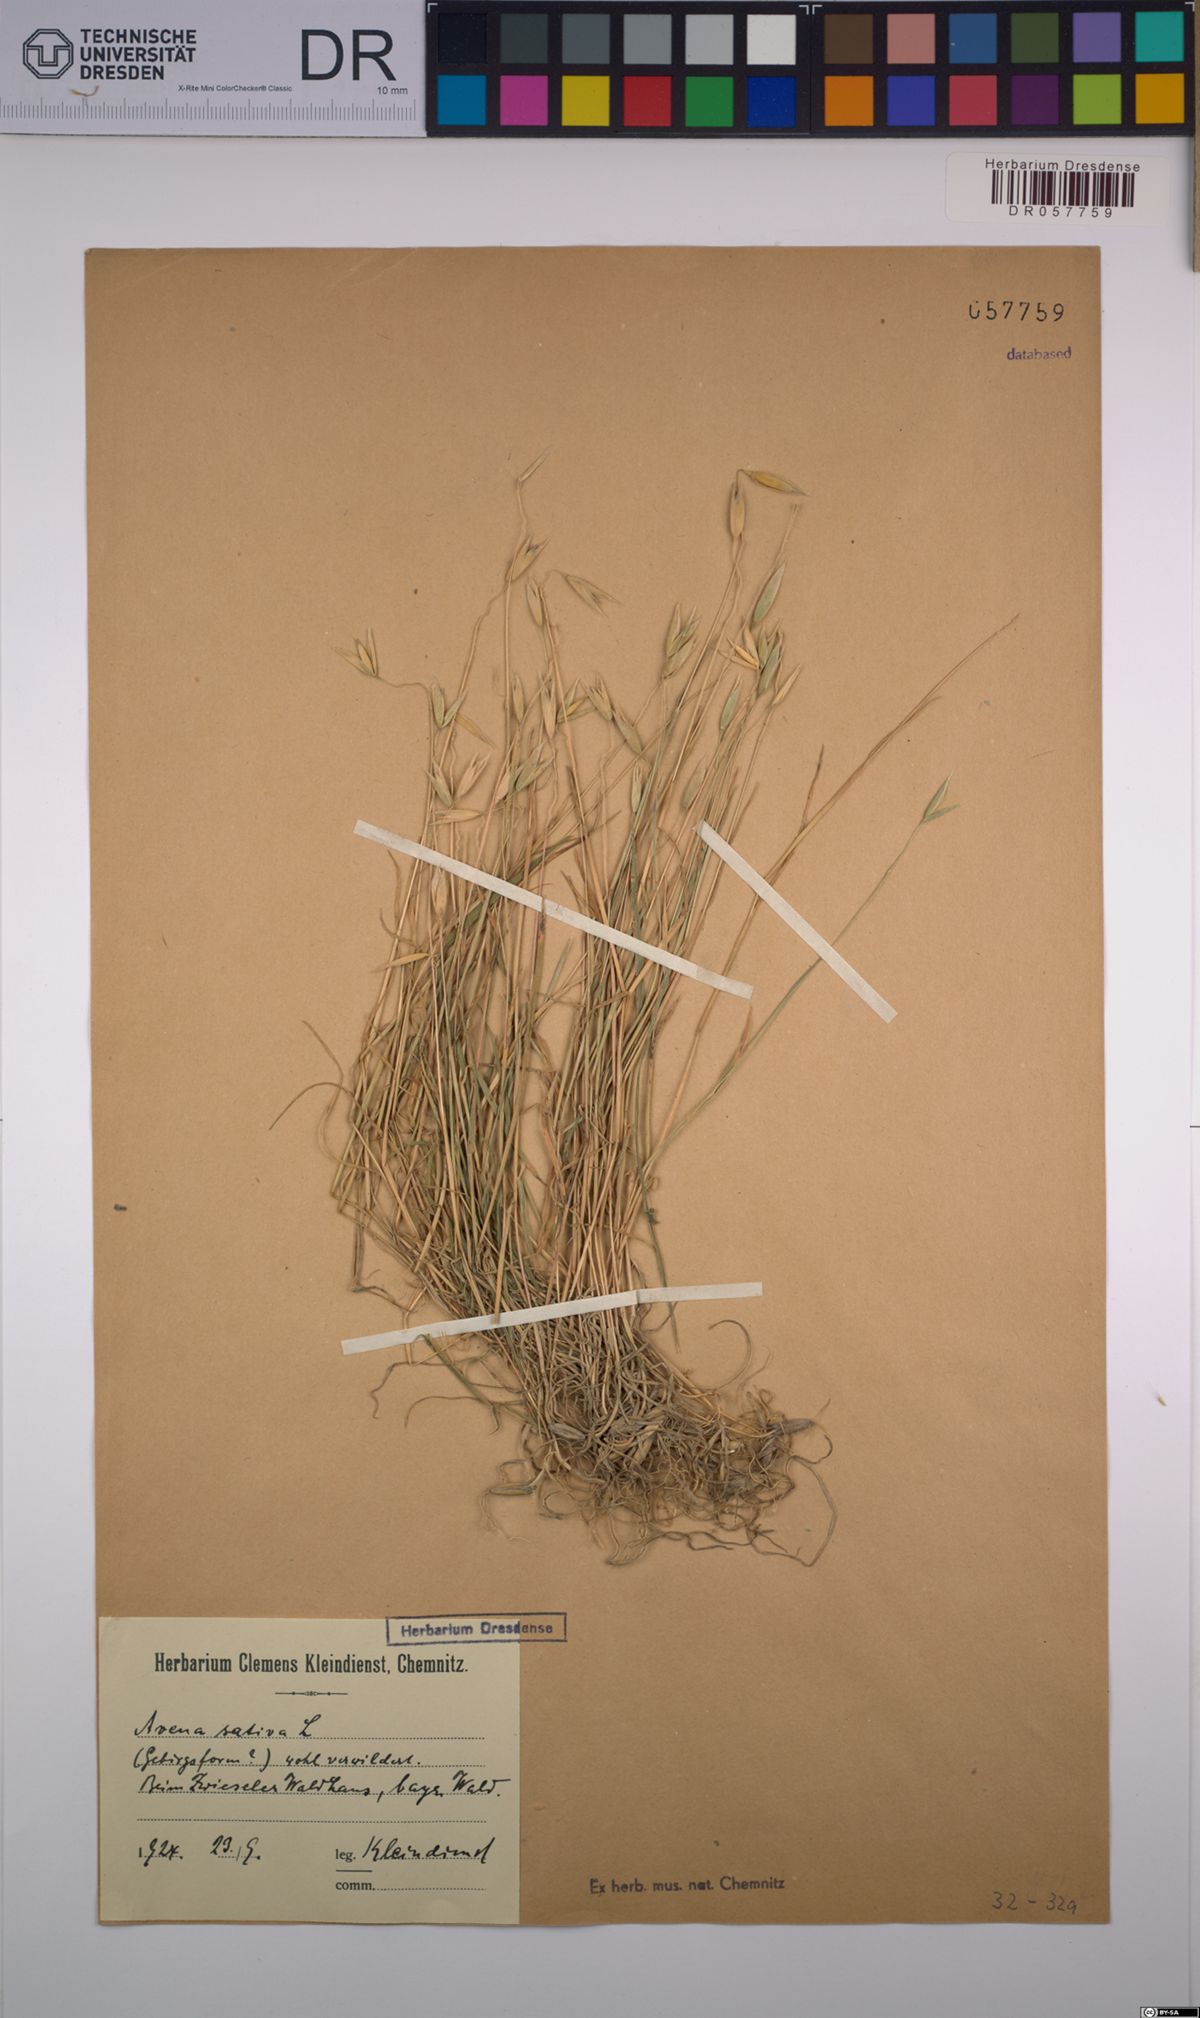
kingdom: Plantae
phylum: Tracheophyta
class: Liliopsida
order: Poales
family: Poaceae
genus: Avena
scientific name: Avena sativa
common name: Oat
